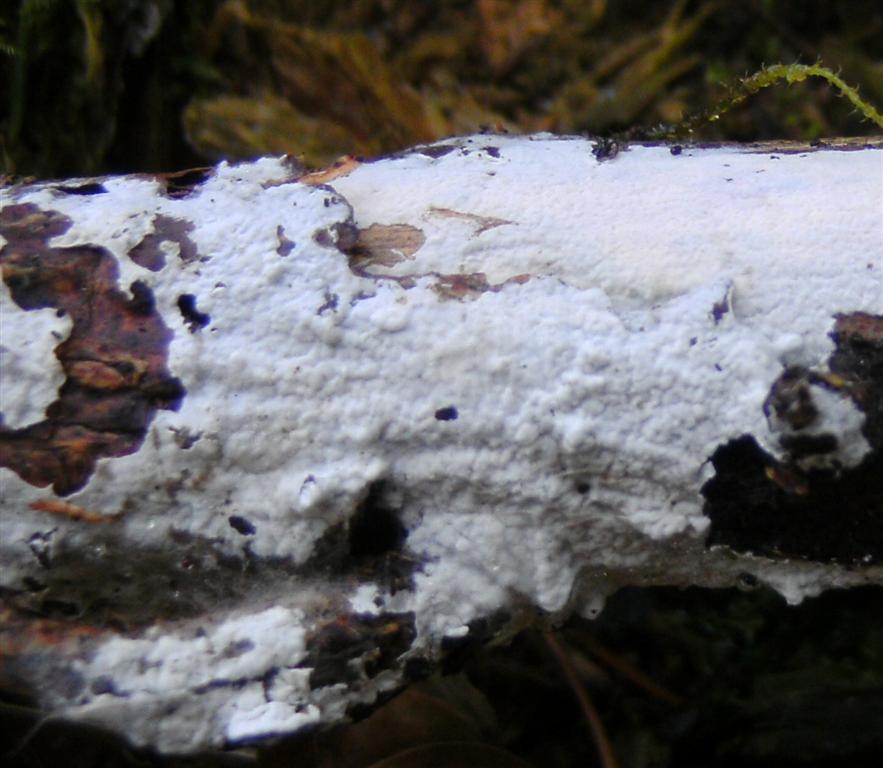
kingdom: Fungi
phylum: Basidiomycota
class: Agaricomycetes
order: Atheliales
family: Atheliaceae
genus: Athelia
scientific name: Athelia epiphylla
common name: almindelig barkhinde
